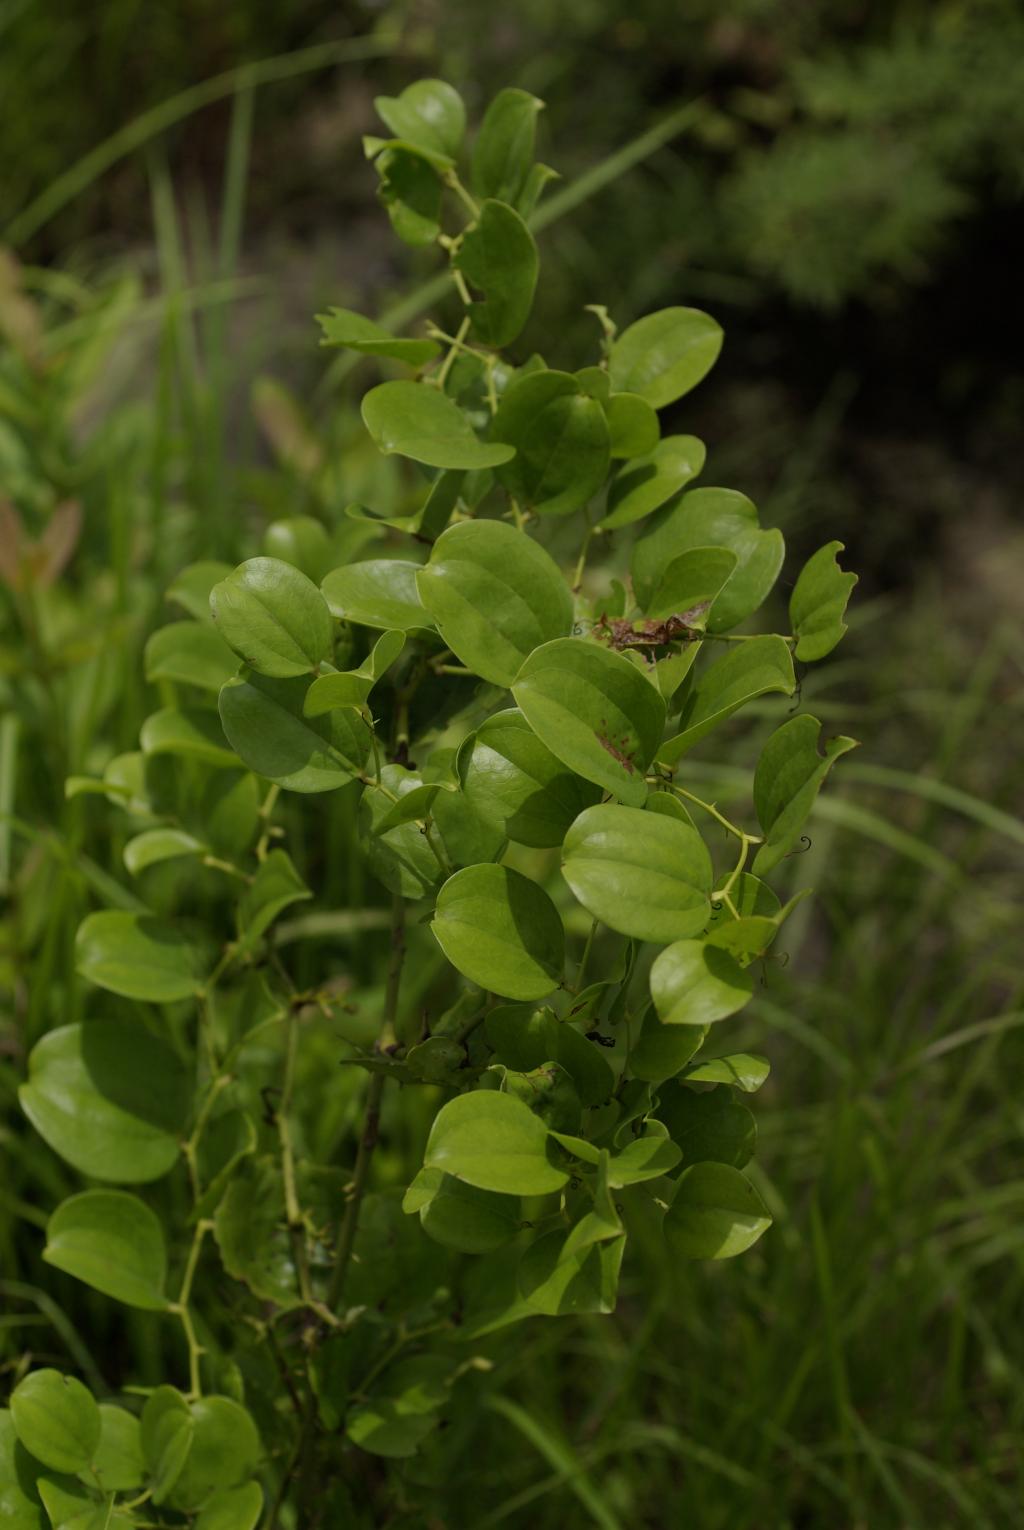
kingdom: Plantae
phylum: Tracheophyta
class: Liliopsida
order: Liliales
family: Smilacaceae
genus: Smilax
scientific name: Smilax china
